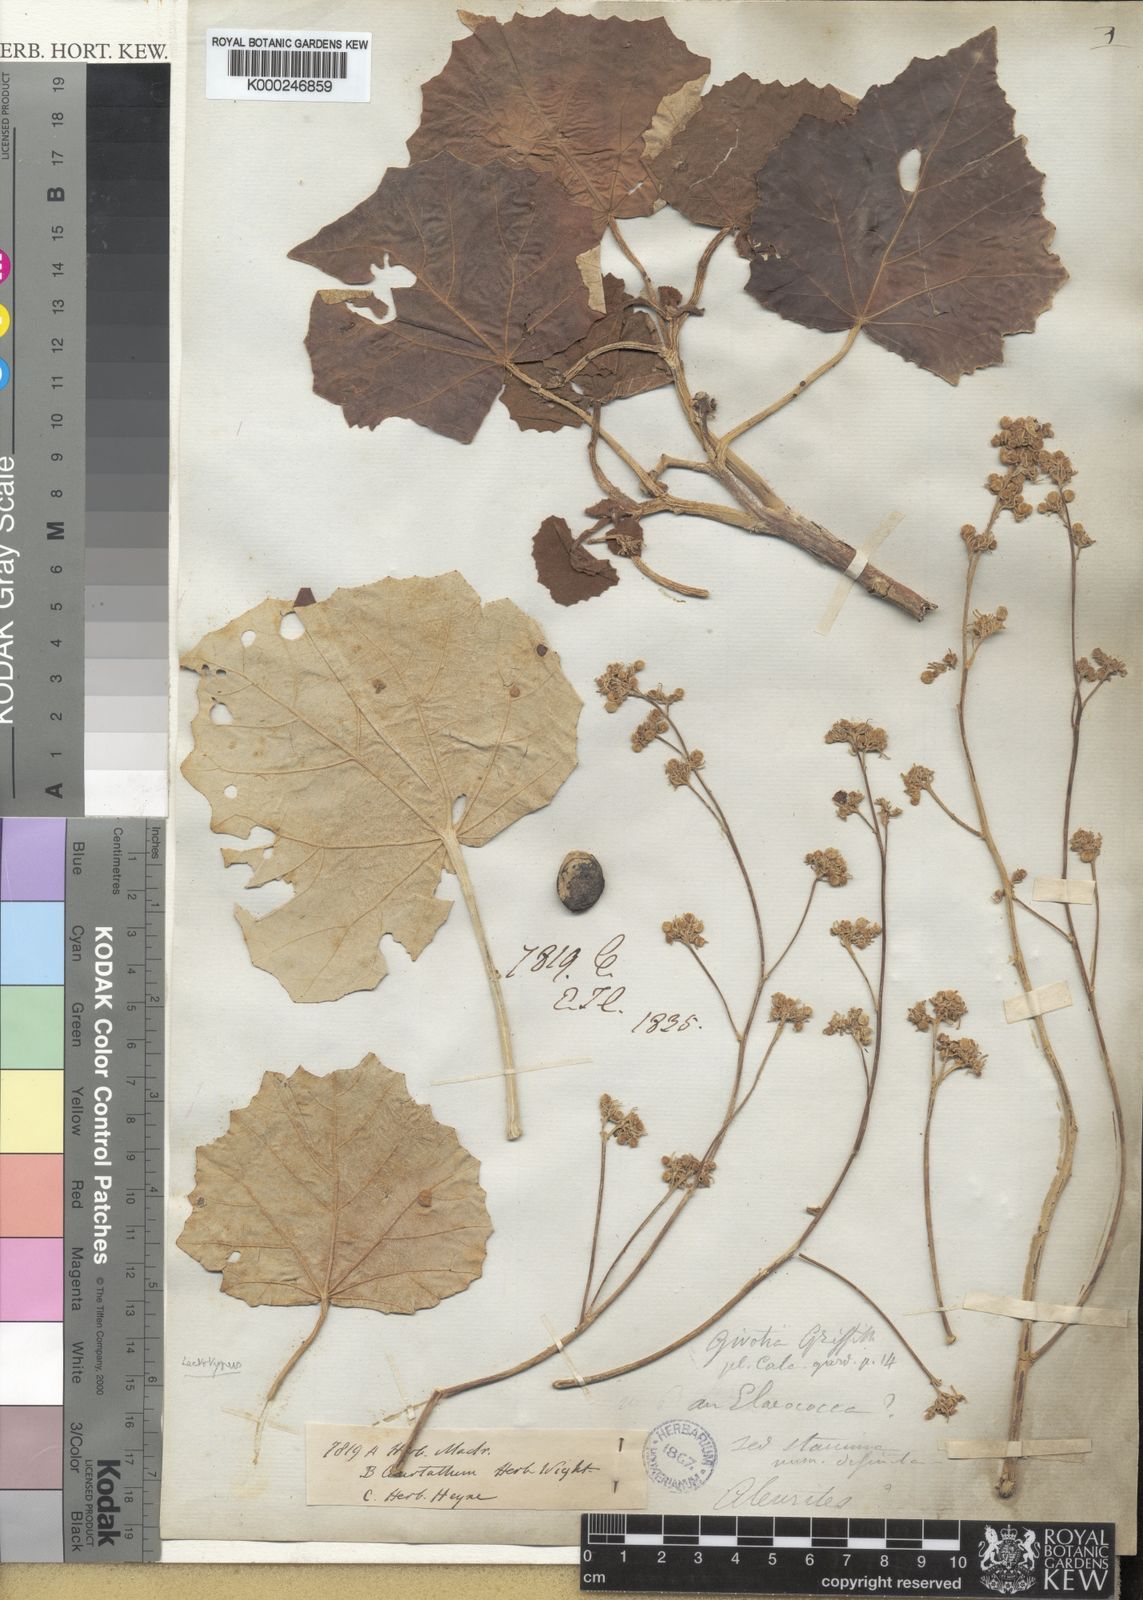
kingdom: Plantae
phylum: Tracheophyta
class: Magnoliopsida
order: Malpighiales
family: Euphorbiaceae
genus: Givotia
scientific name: Givotia
